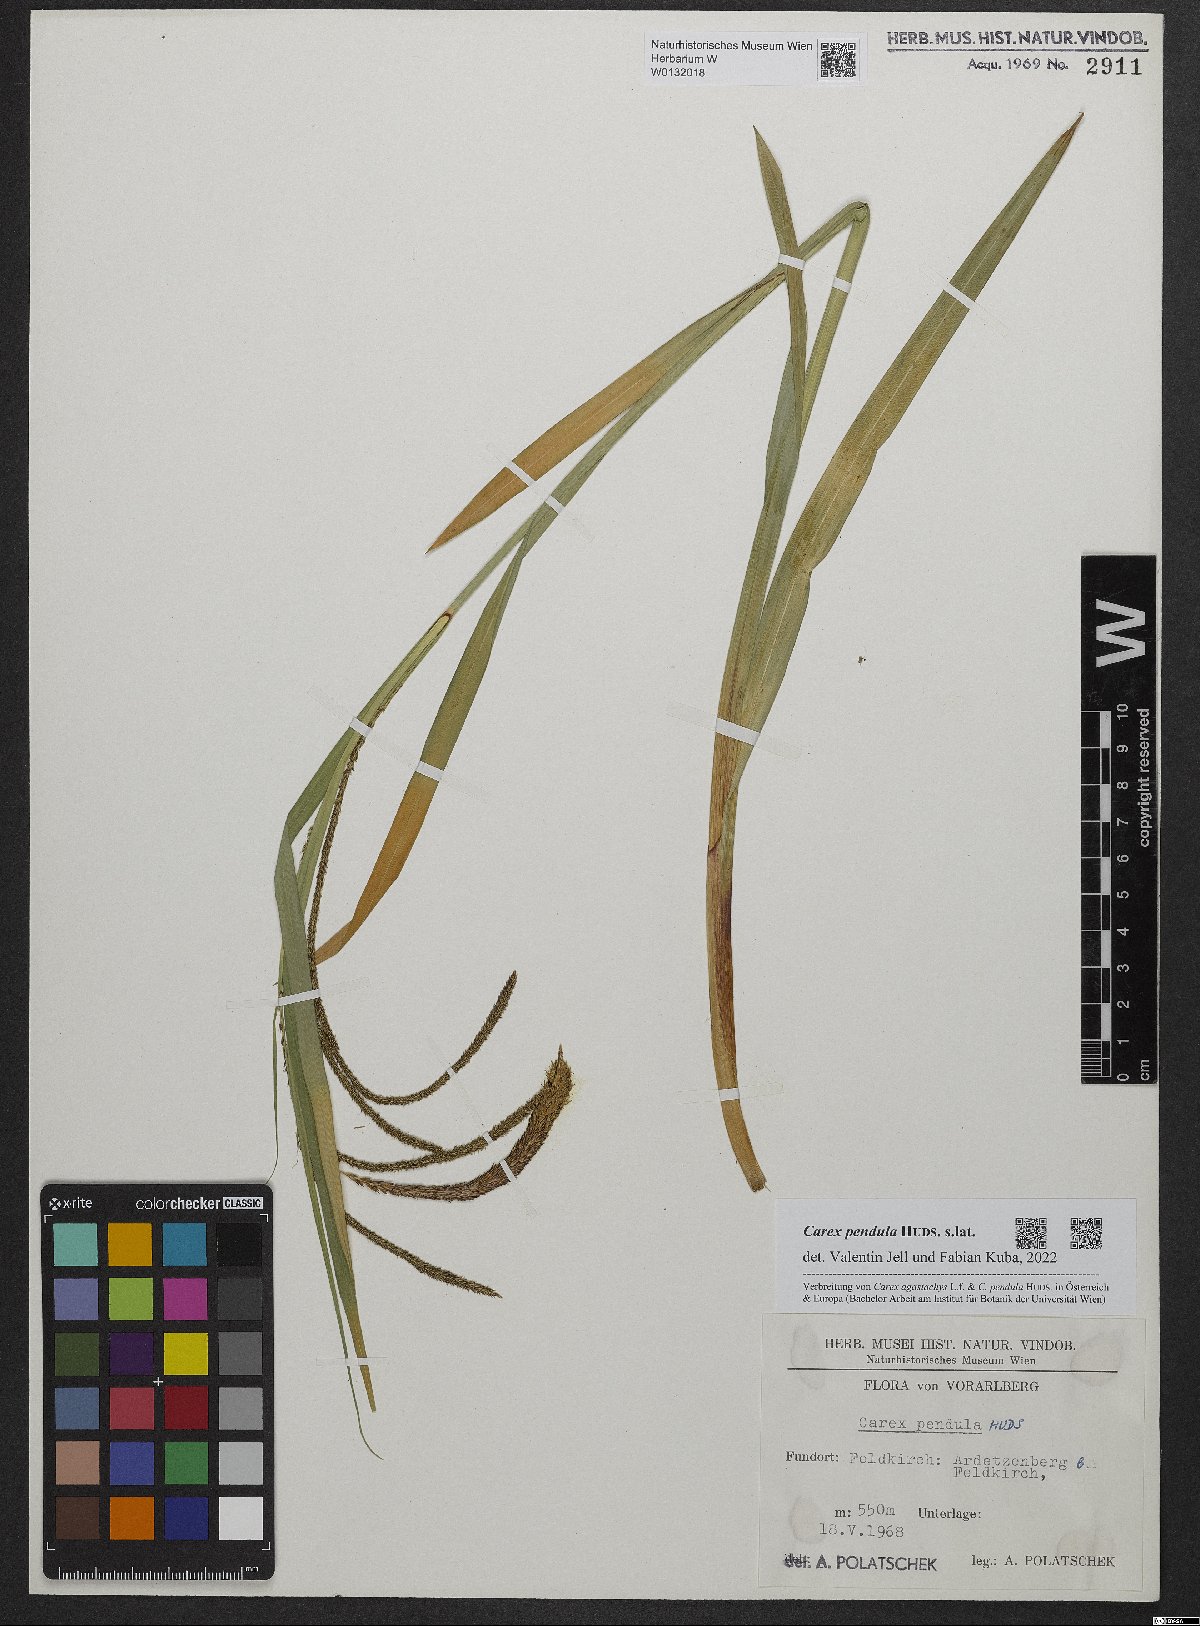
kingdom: Plantae
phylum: Tracheophyta
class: Liliopsida
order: Poales
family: Cyperaceae
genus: Carex
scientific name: Carex pendula
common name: Pendulous sedge
